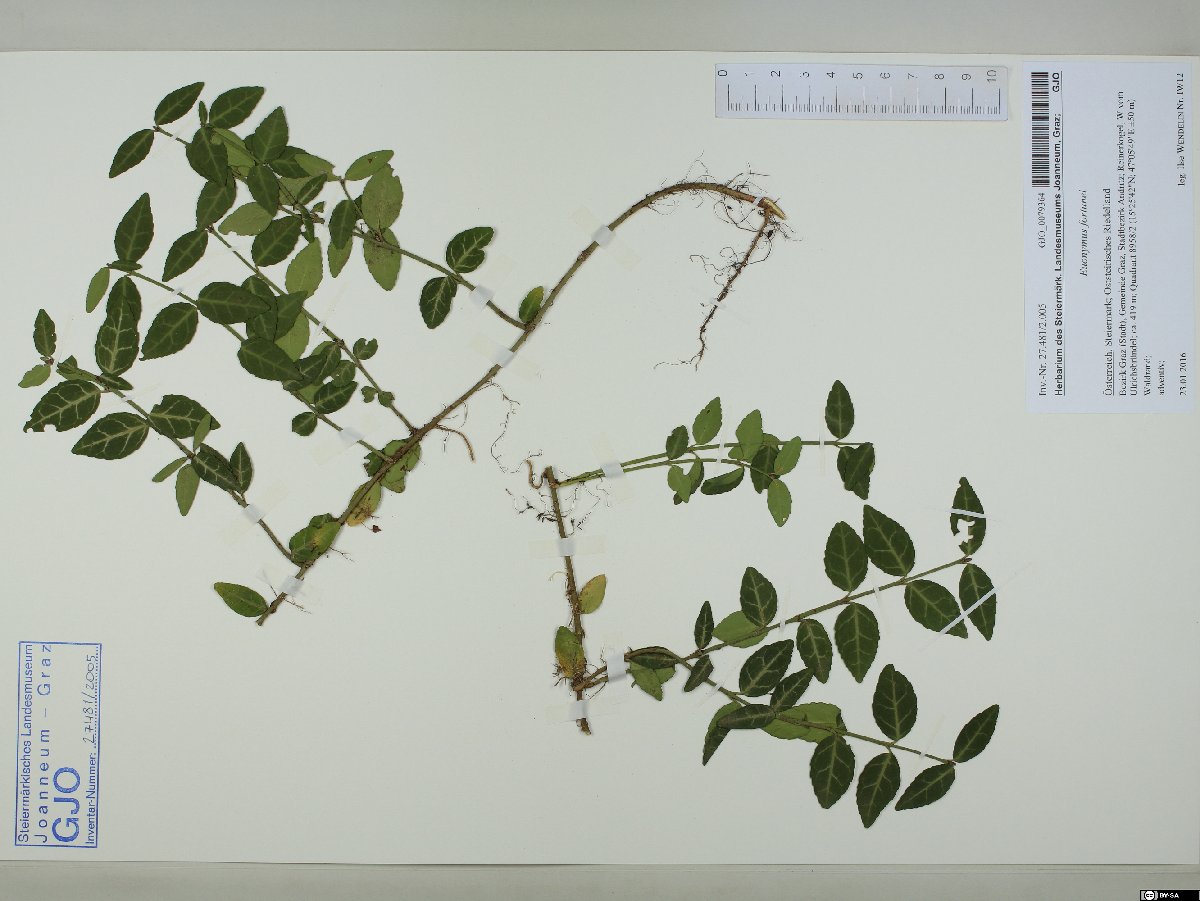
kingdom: Plantae
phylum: Tracheophyta
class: Magnoliopsida
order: Celastrales
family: Celastraceae
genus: Euonymus
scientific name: Euonymus fortunei
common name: Climbing euonymus
